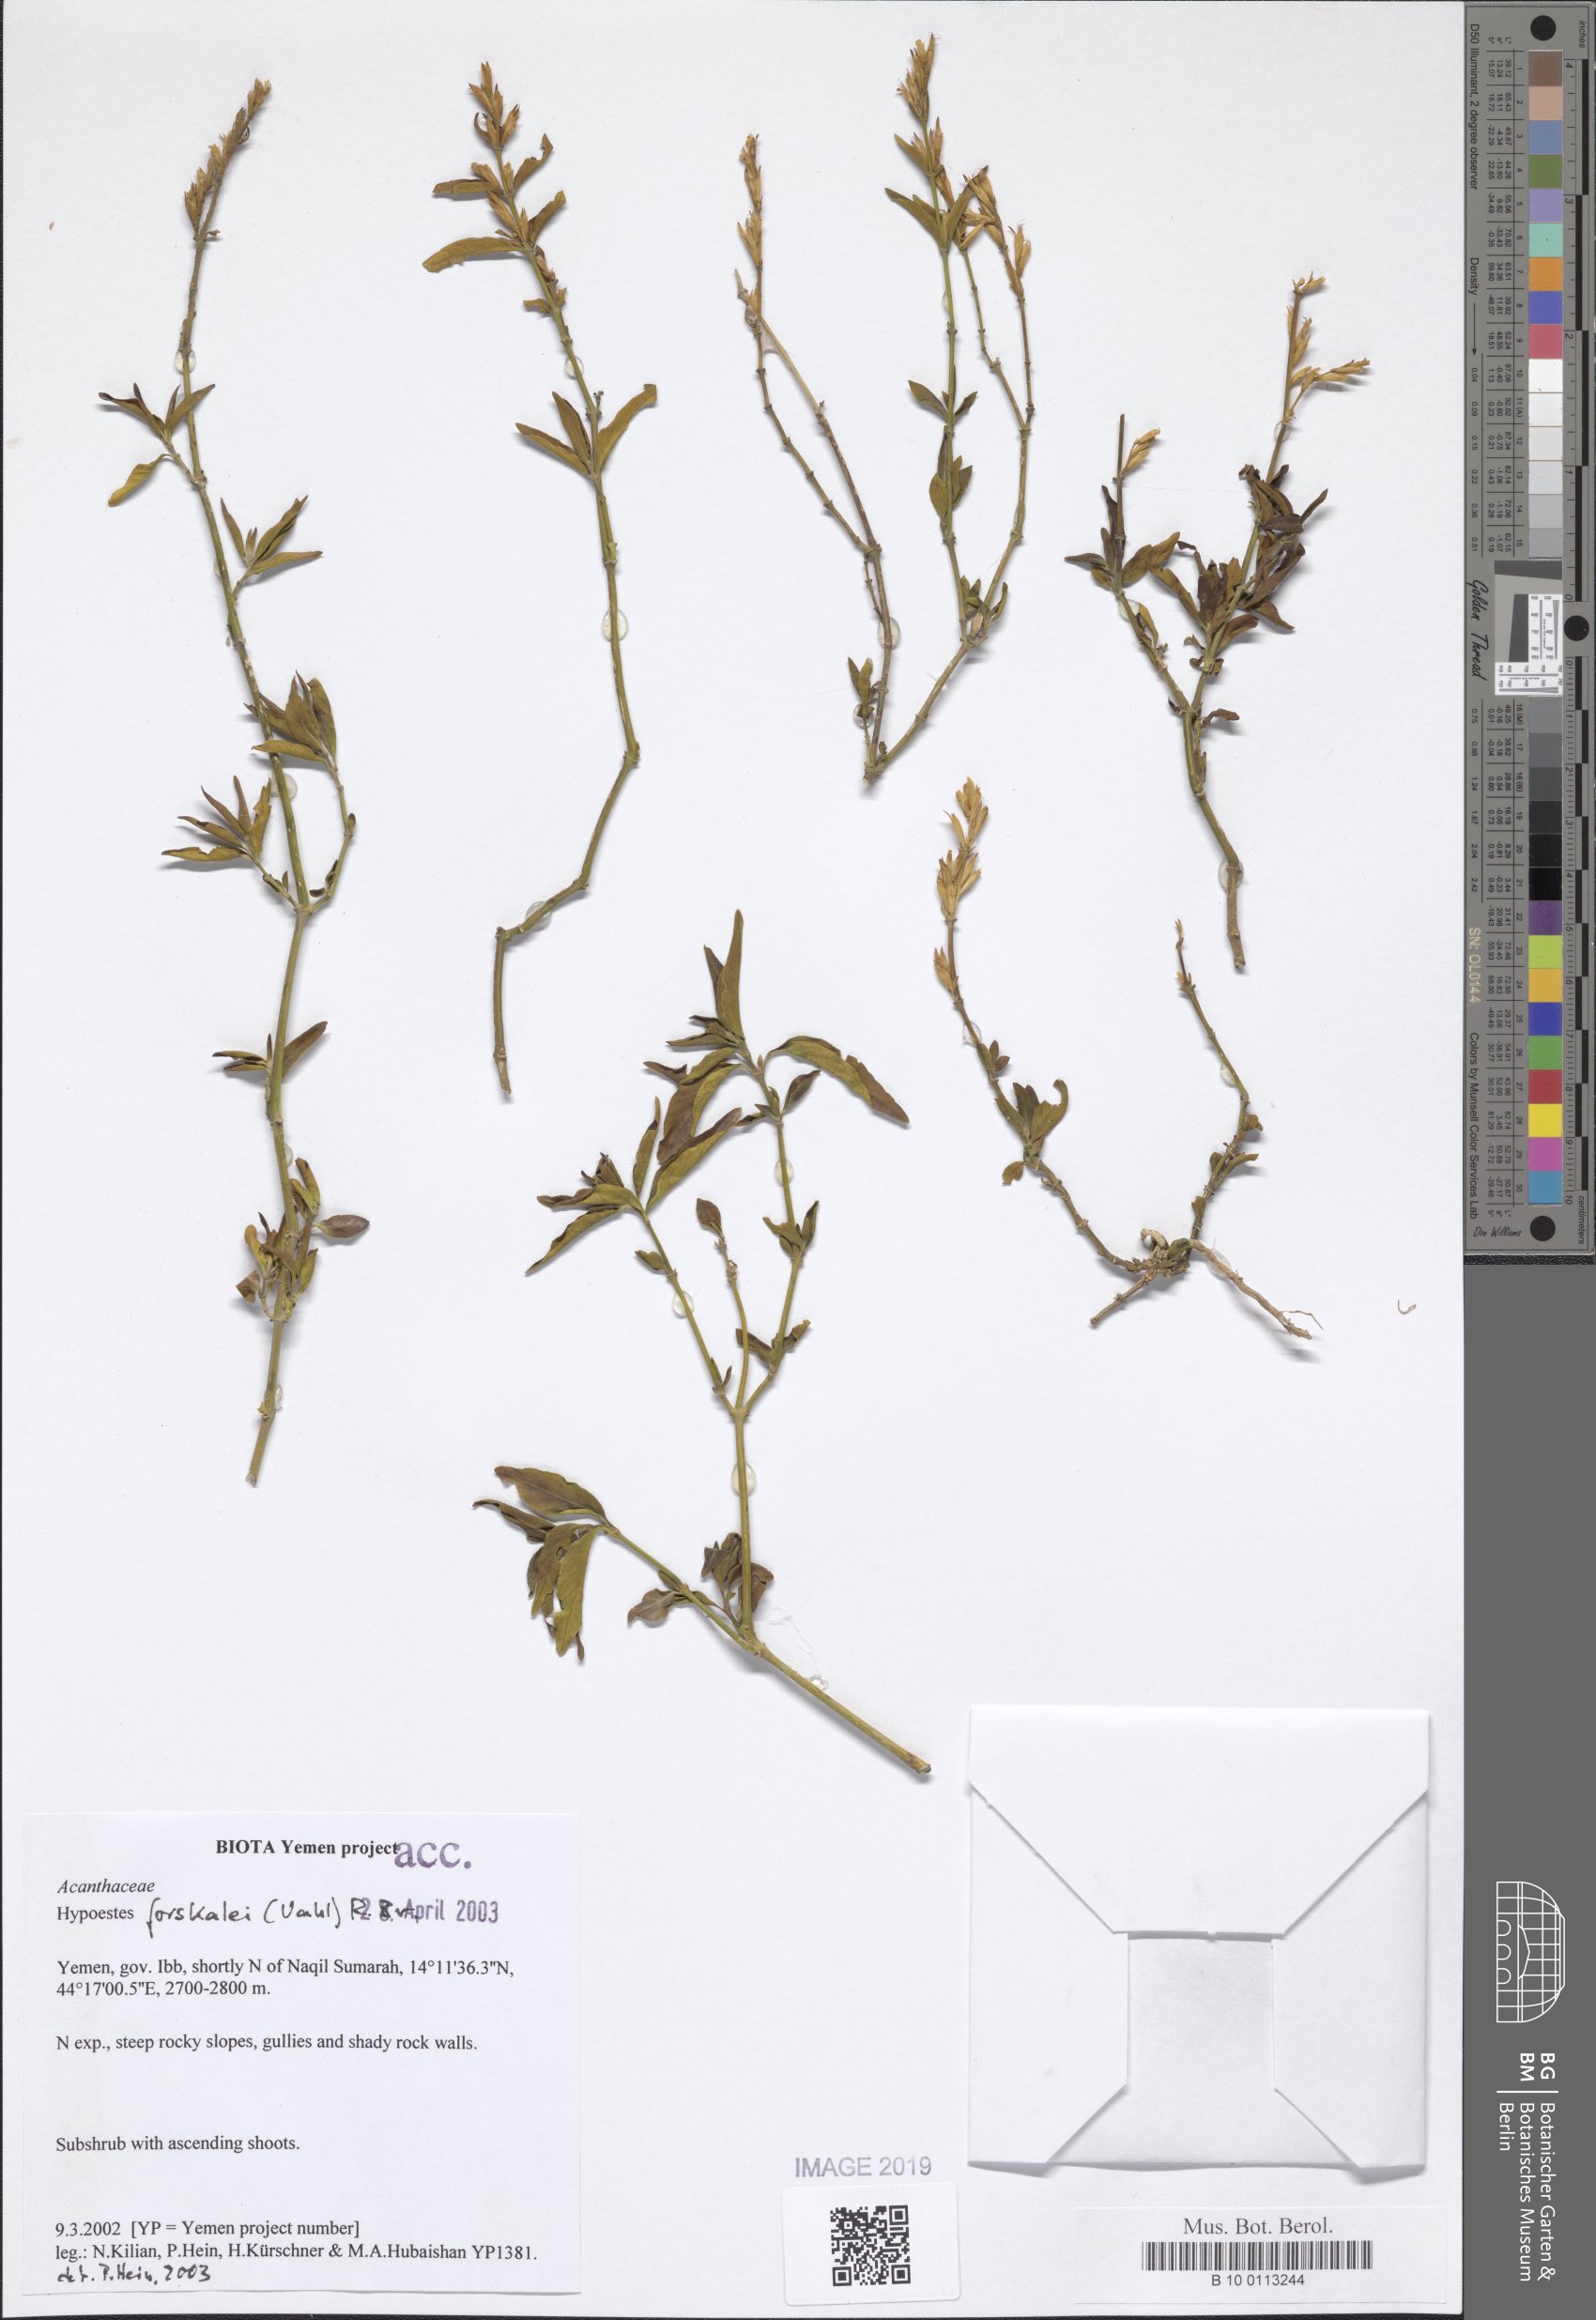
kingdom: Plantae
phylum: Tracheophyta
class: Magnoliopsida
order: Lamiales
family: Acanthaceae
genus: Hypoestes
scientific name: Hypoestes forskaolii
